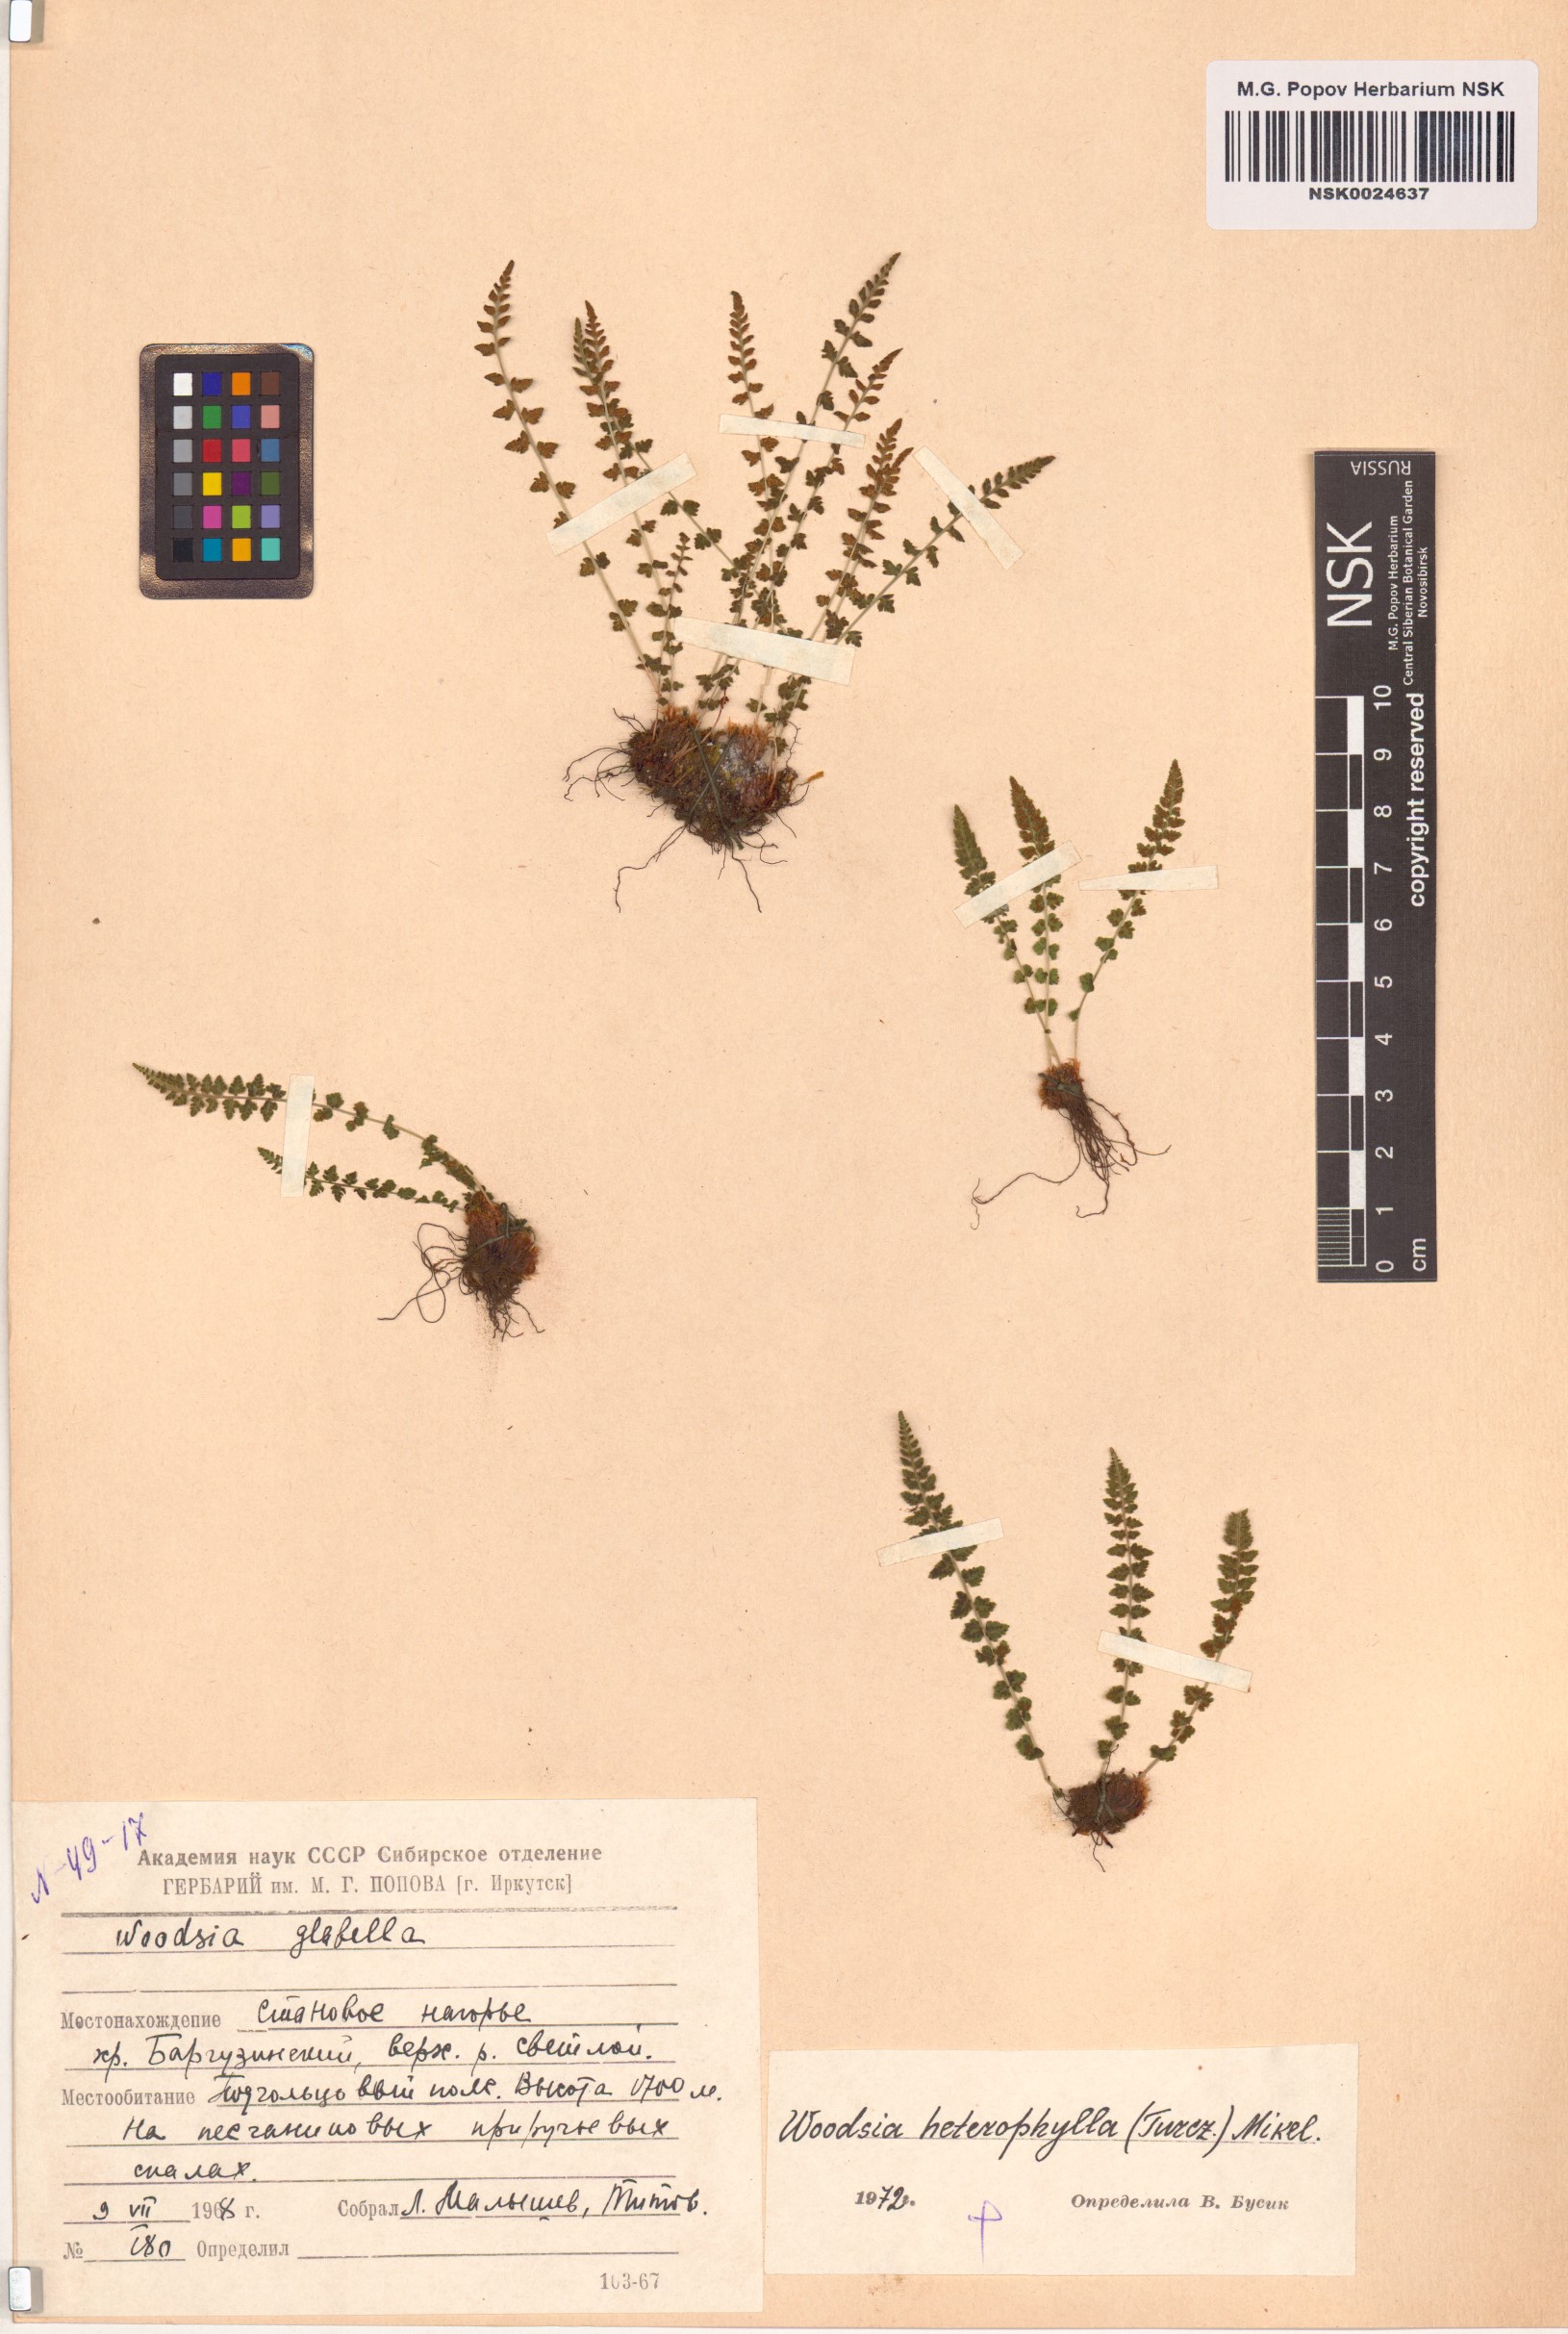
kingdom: Plantae
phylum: Tracheophyta
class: Polypodiopsida
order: Polypodiales
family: Woodsiaceae
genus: Woodsia
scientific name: Woodsia pulchella
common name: Graceful woodsia
